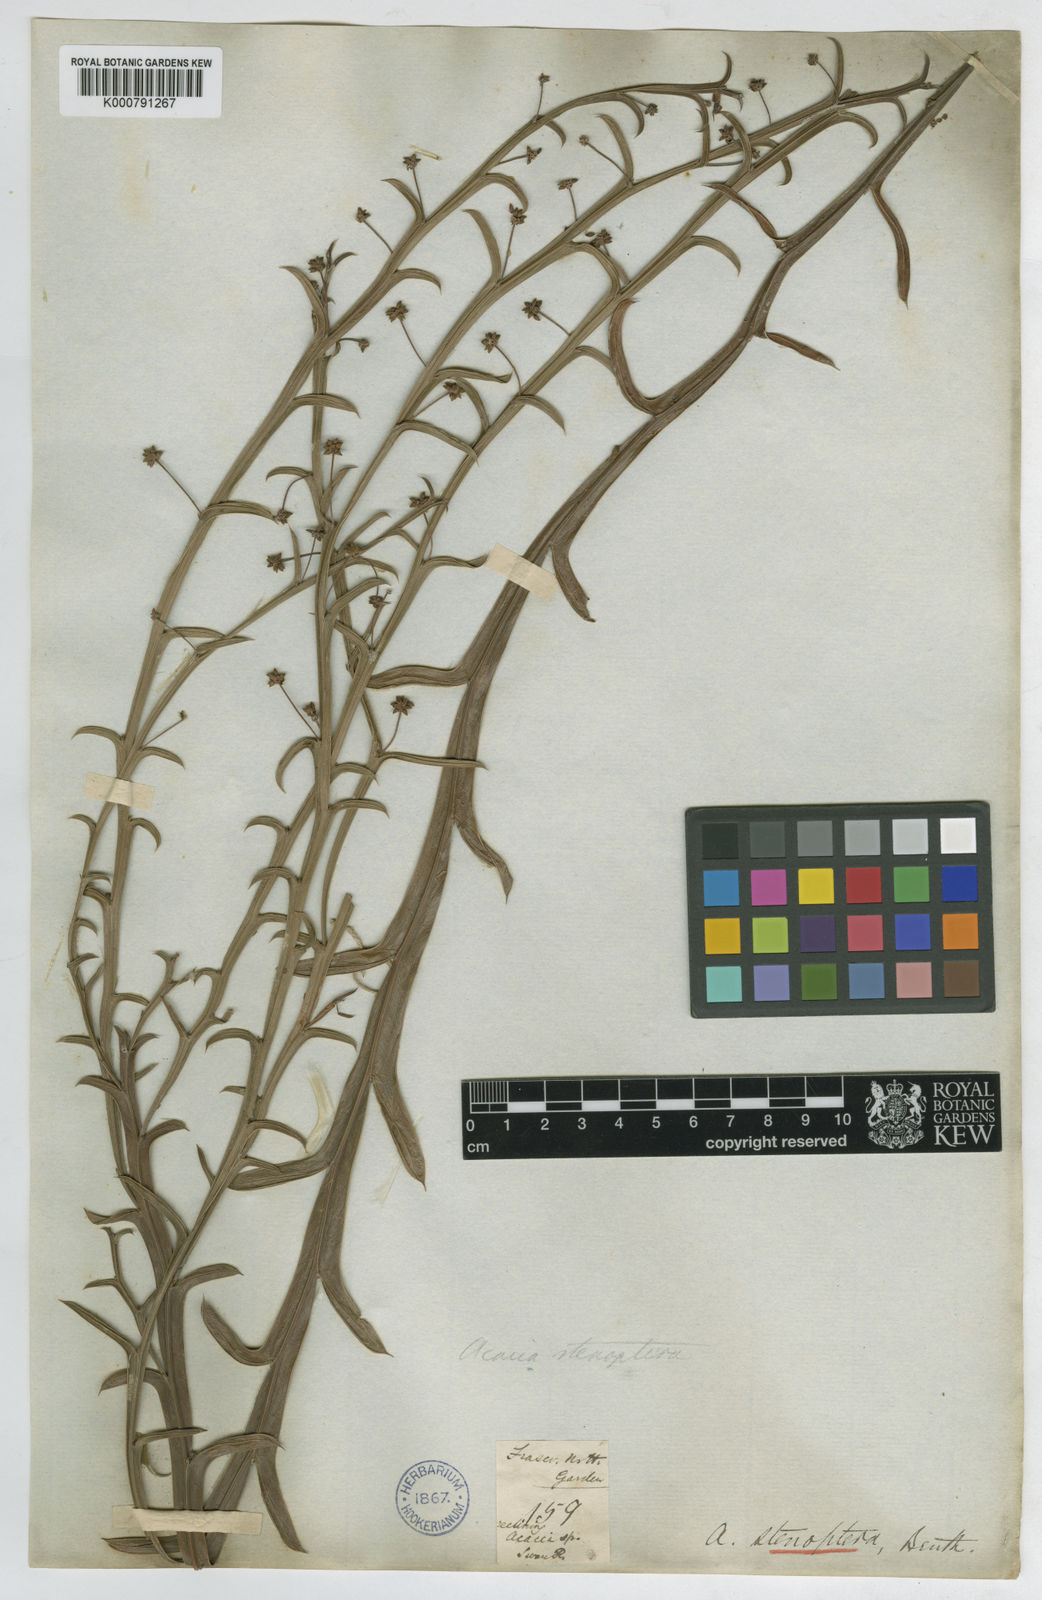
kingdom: Plantae
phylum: Tracheophyta
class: Magnoliopsida
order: Fabales
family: Fabaceae
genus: Acacia
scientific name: Acacia stenoptera
